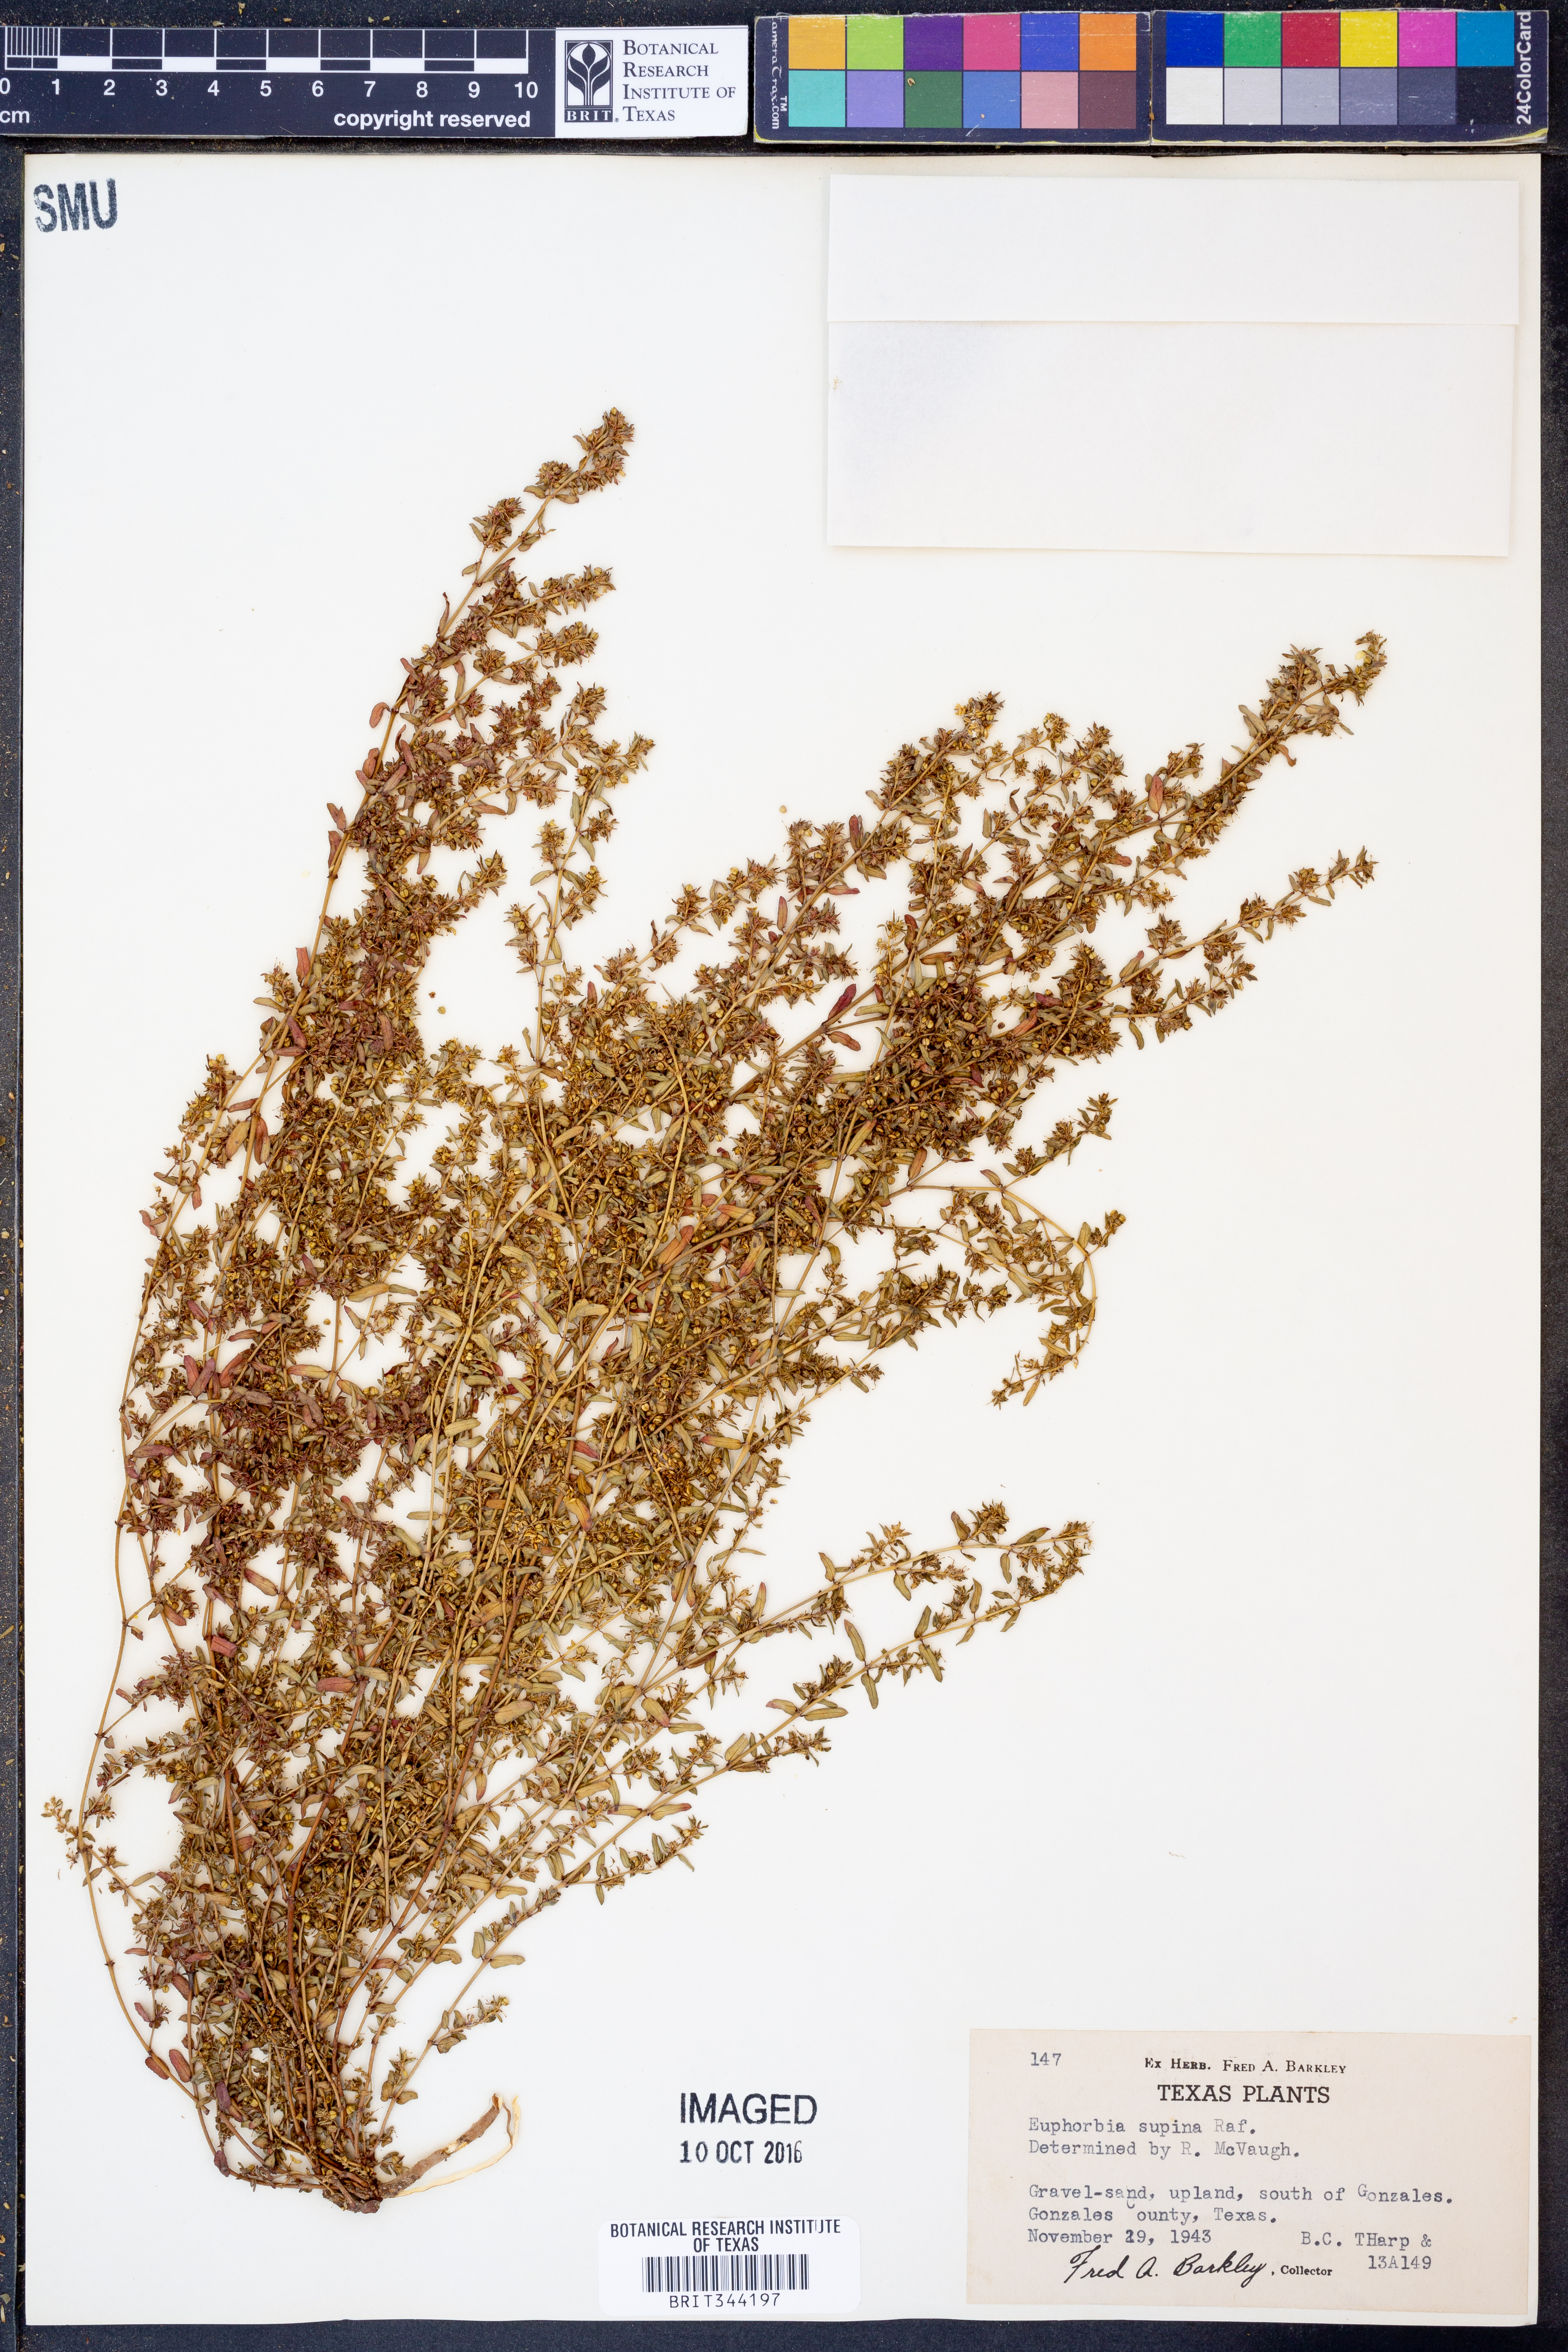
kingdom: Plantae
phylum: Tracheophyta
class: Magnoliopsida
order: Malpighiales
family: Euphorbiaceae
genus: Euphorbia
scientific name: Euphorbia maculata
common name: Spotted spurge
